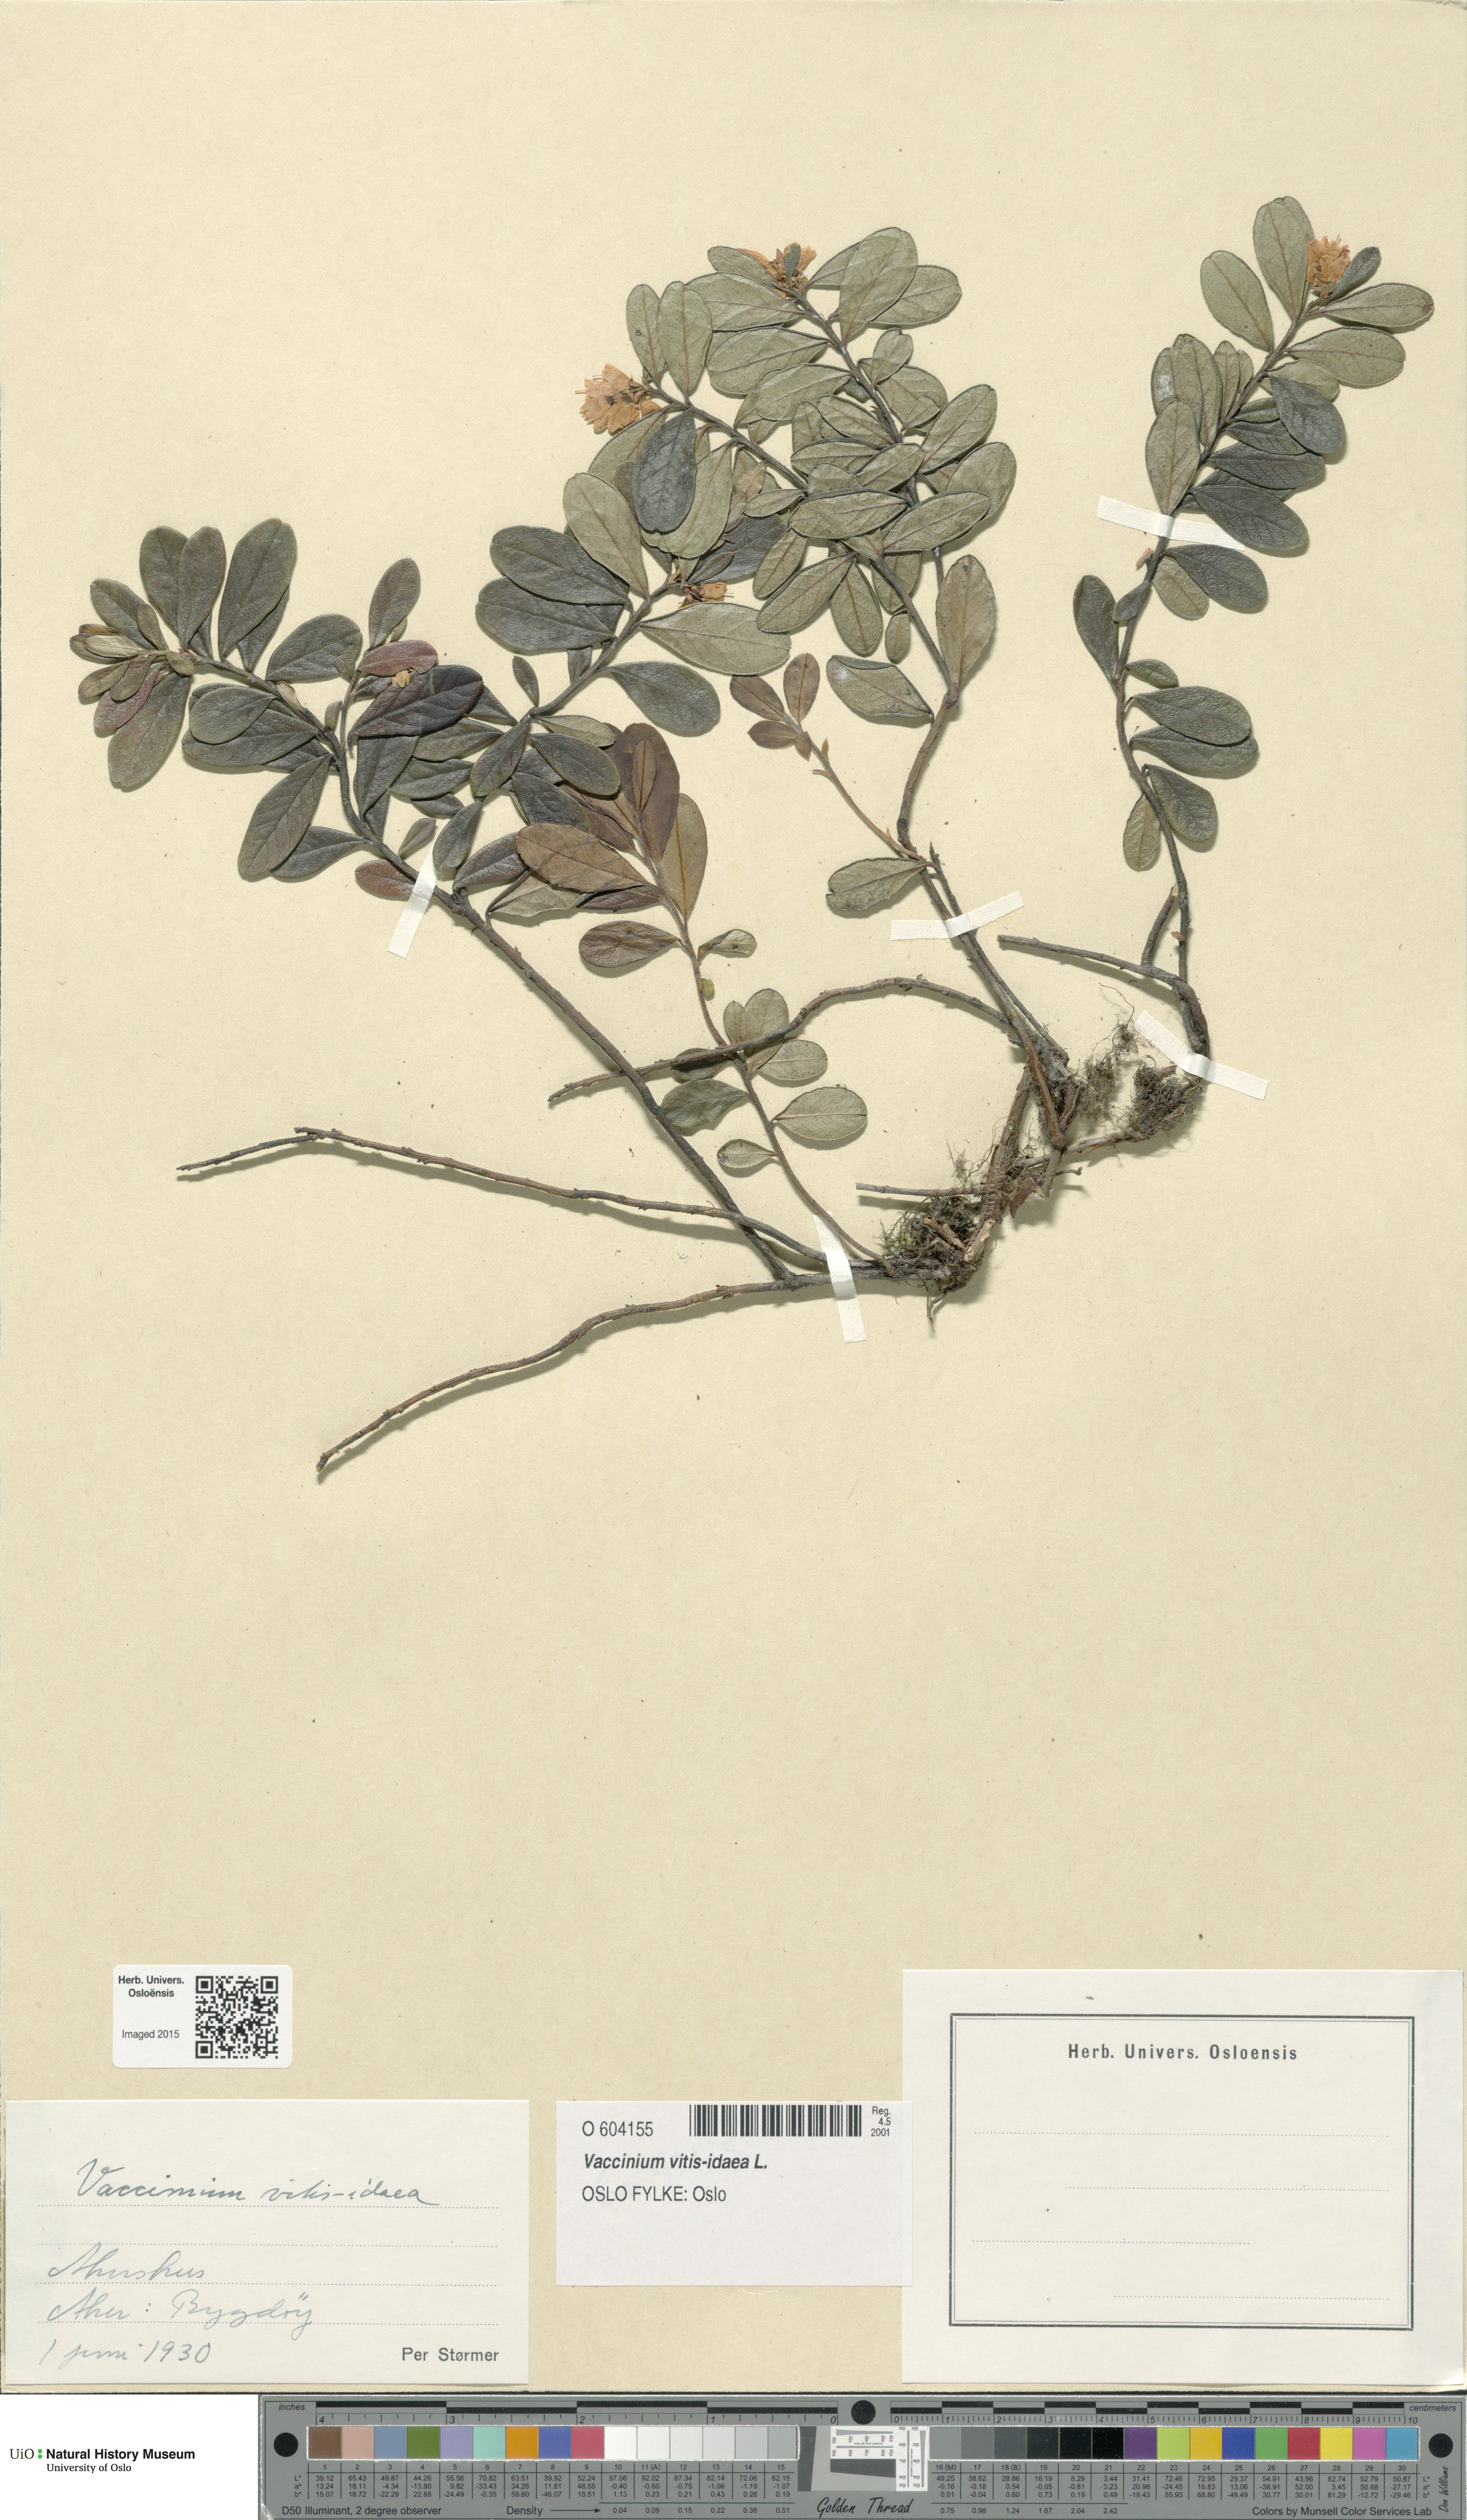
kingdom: Plantae
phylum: Tracheophyta
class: Magnoliopsida
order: Ericales
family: Ericaceae
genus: Vaccinium
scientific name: Vaccinium vitis-idaea
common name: Cowberry
